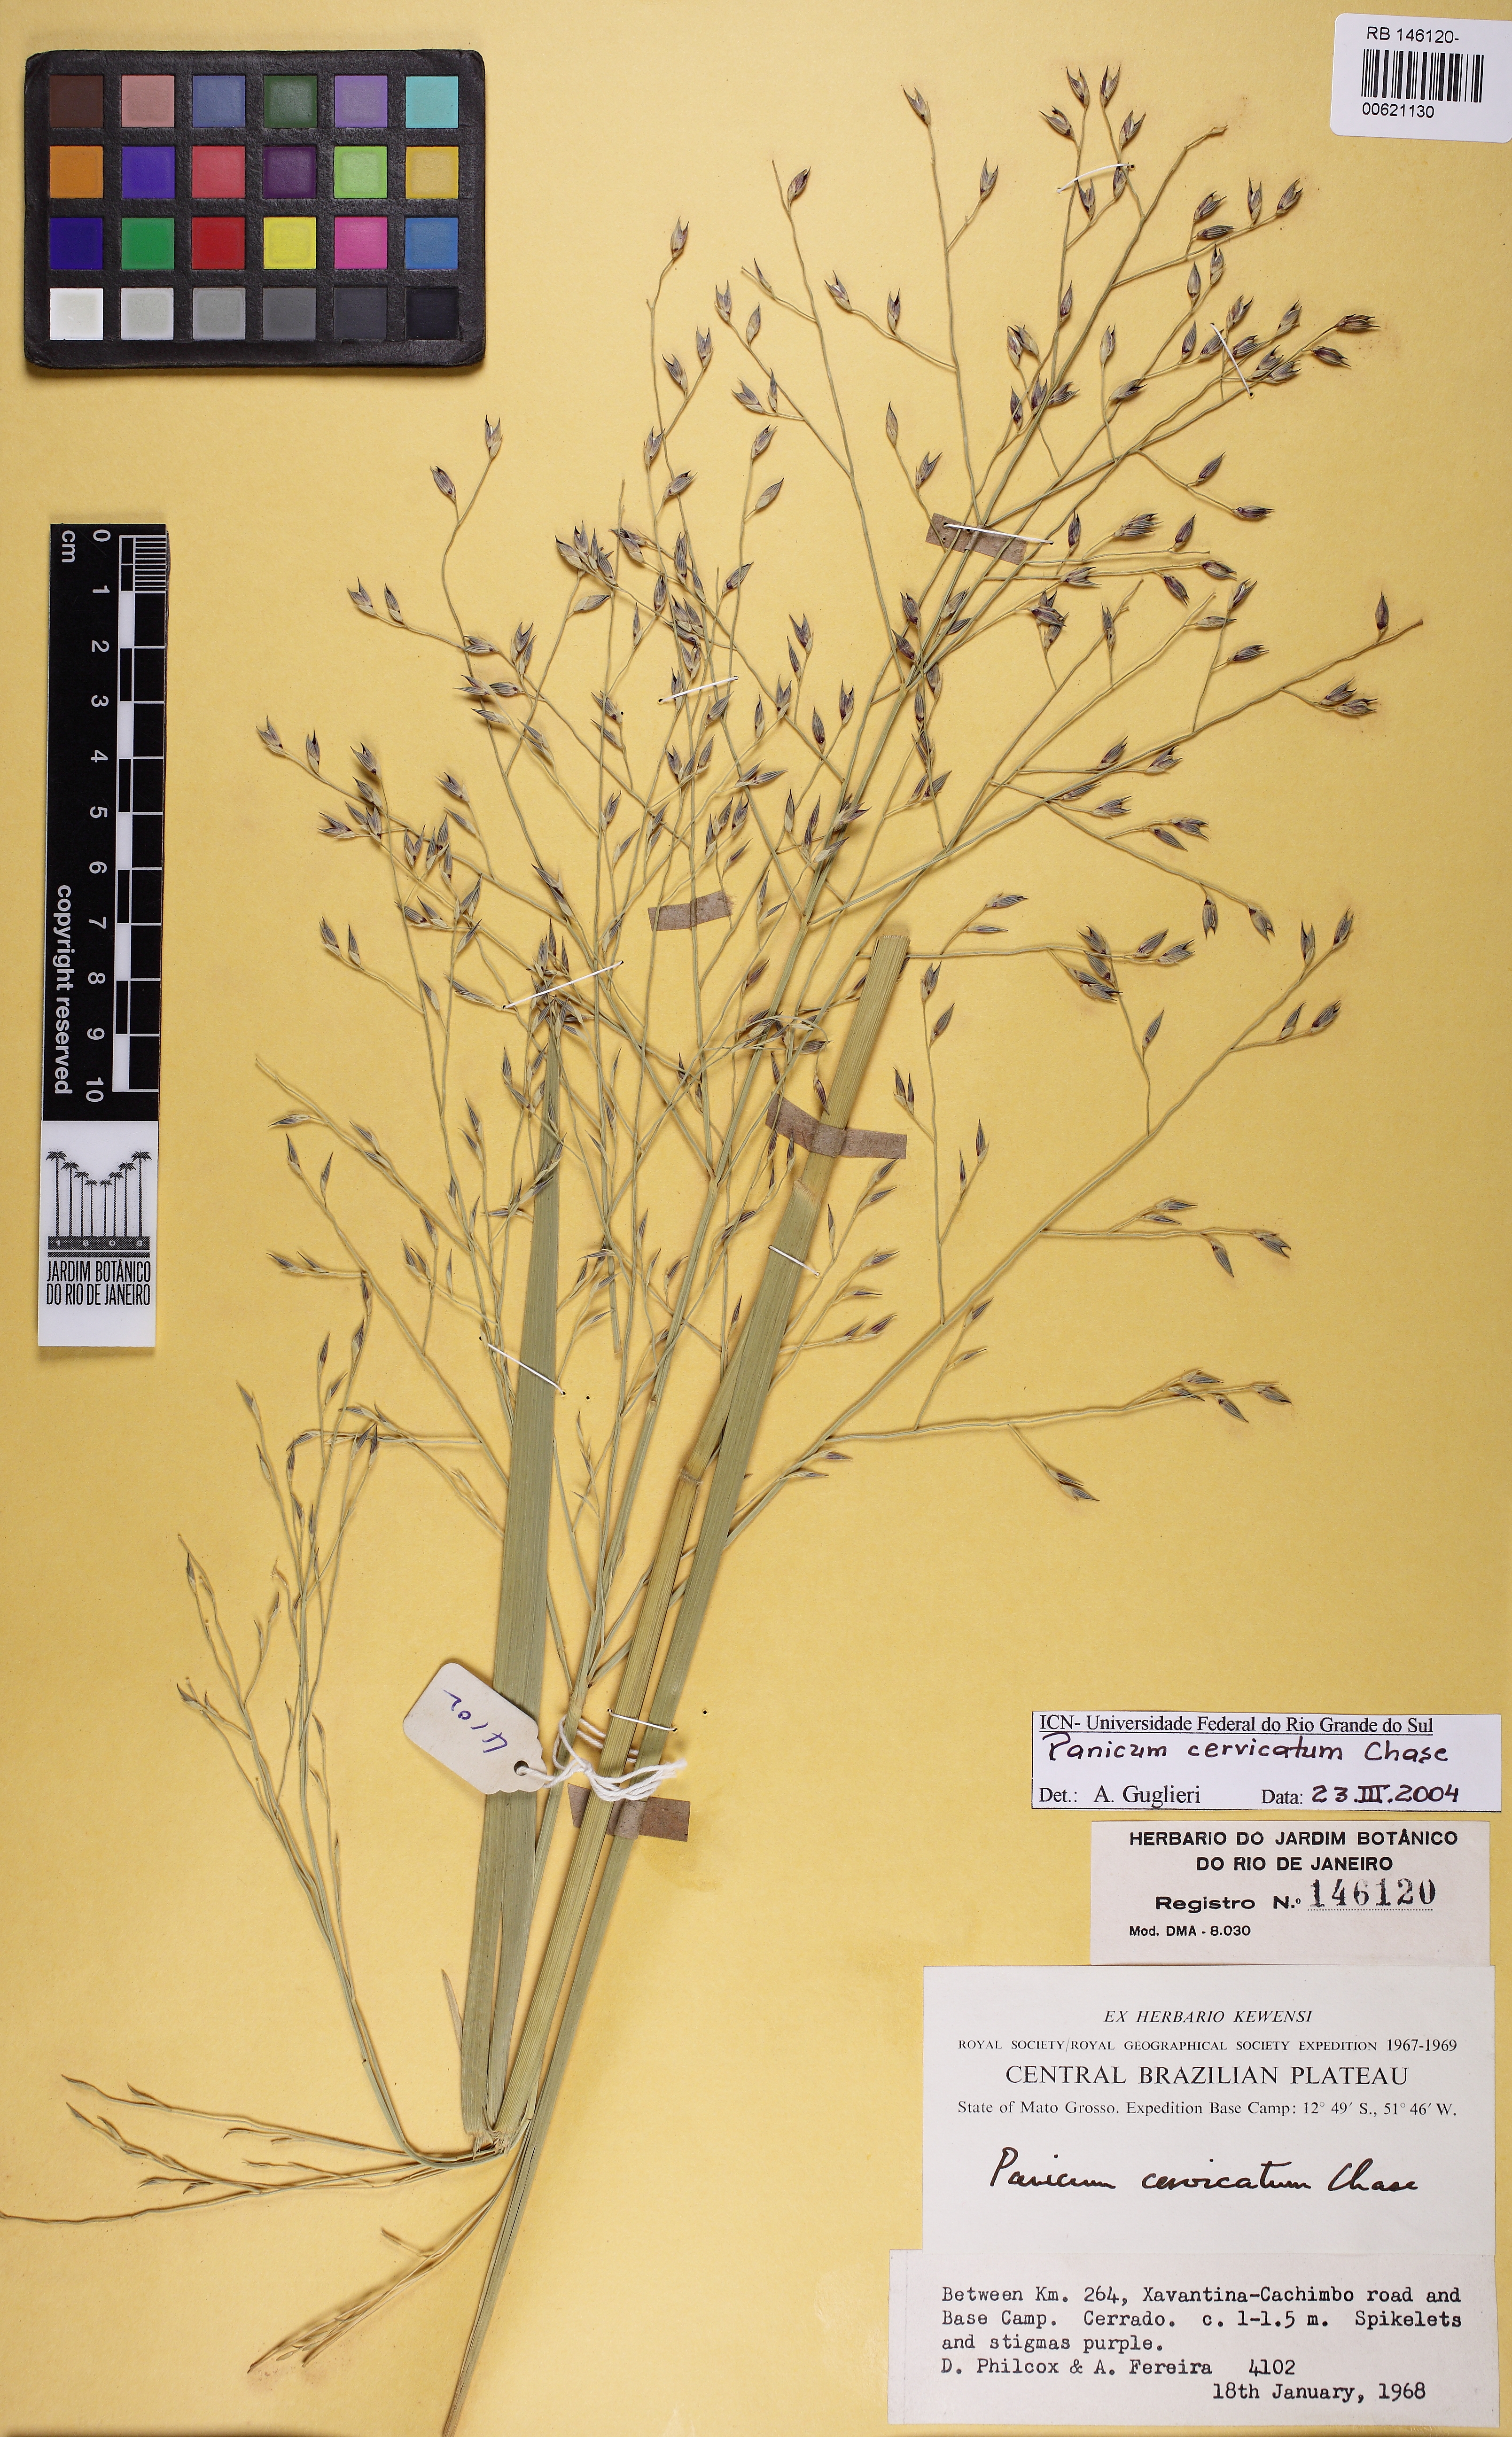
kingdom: Plantae
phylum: Tracheophyta
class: Liliopsida
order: Poales
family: Poaceae
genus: Panicum
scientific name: Panicum cervicatum
